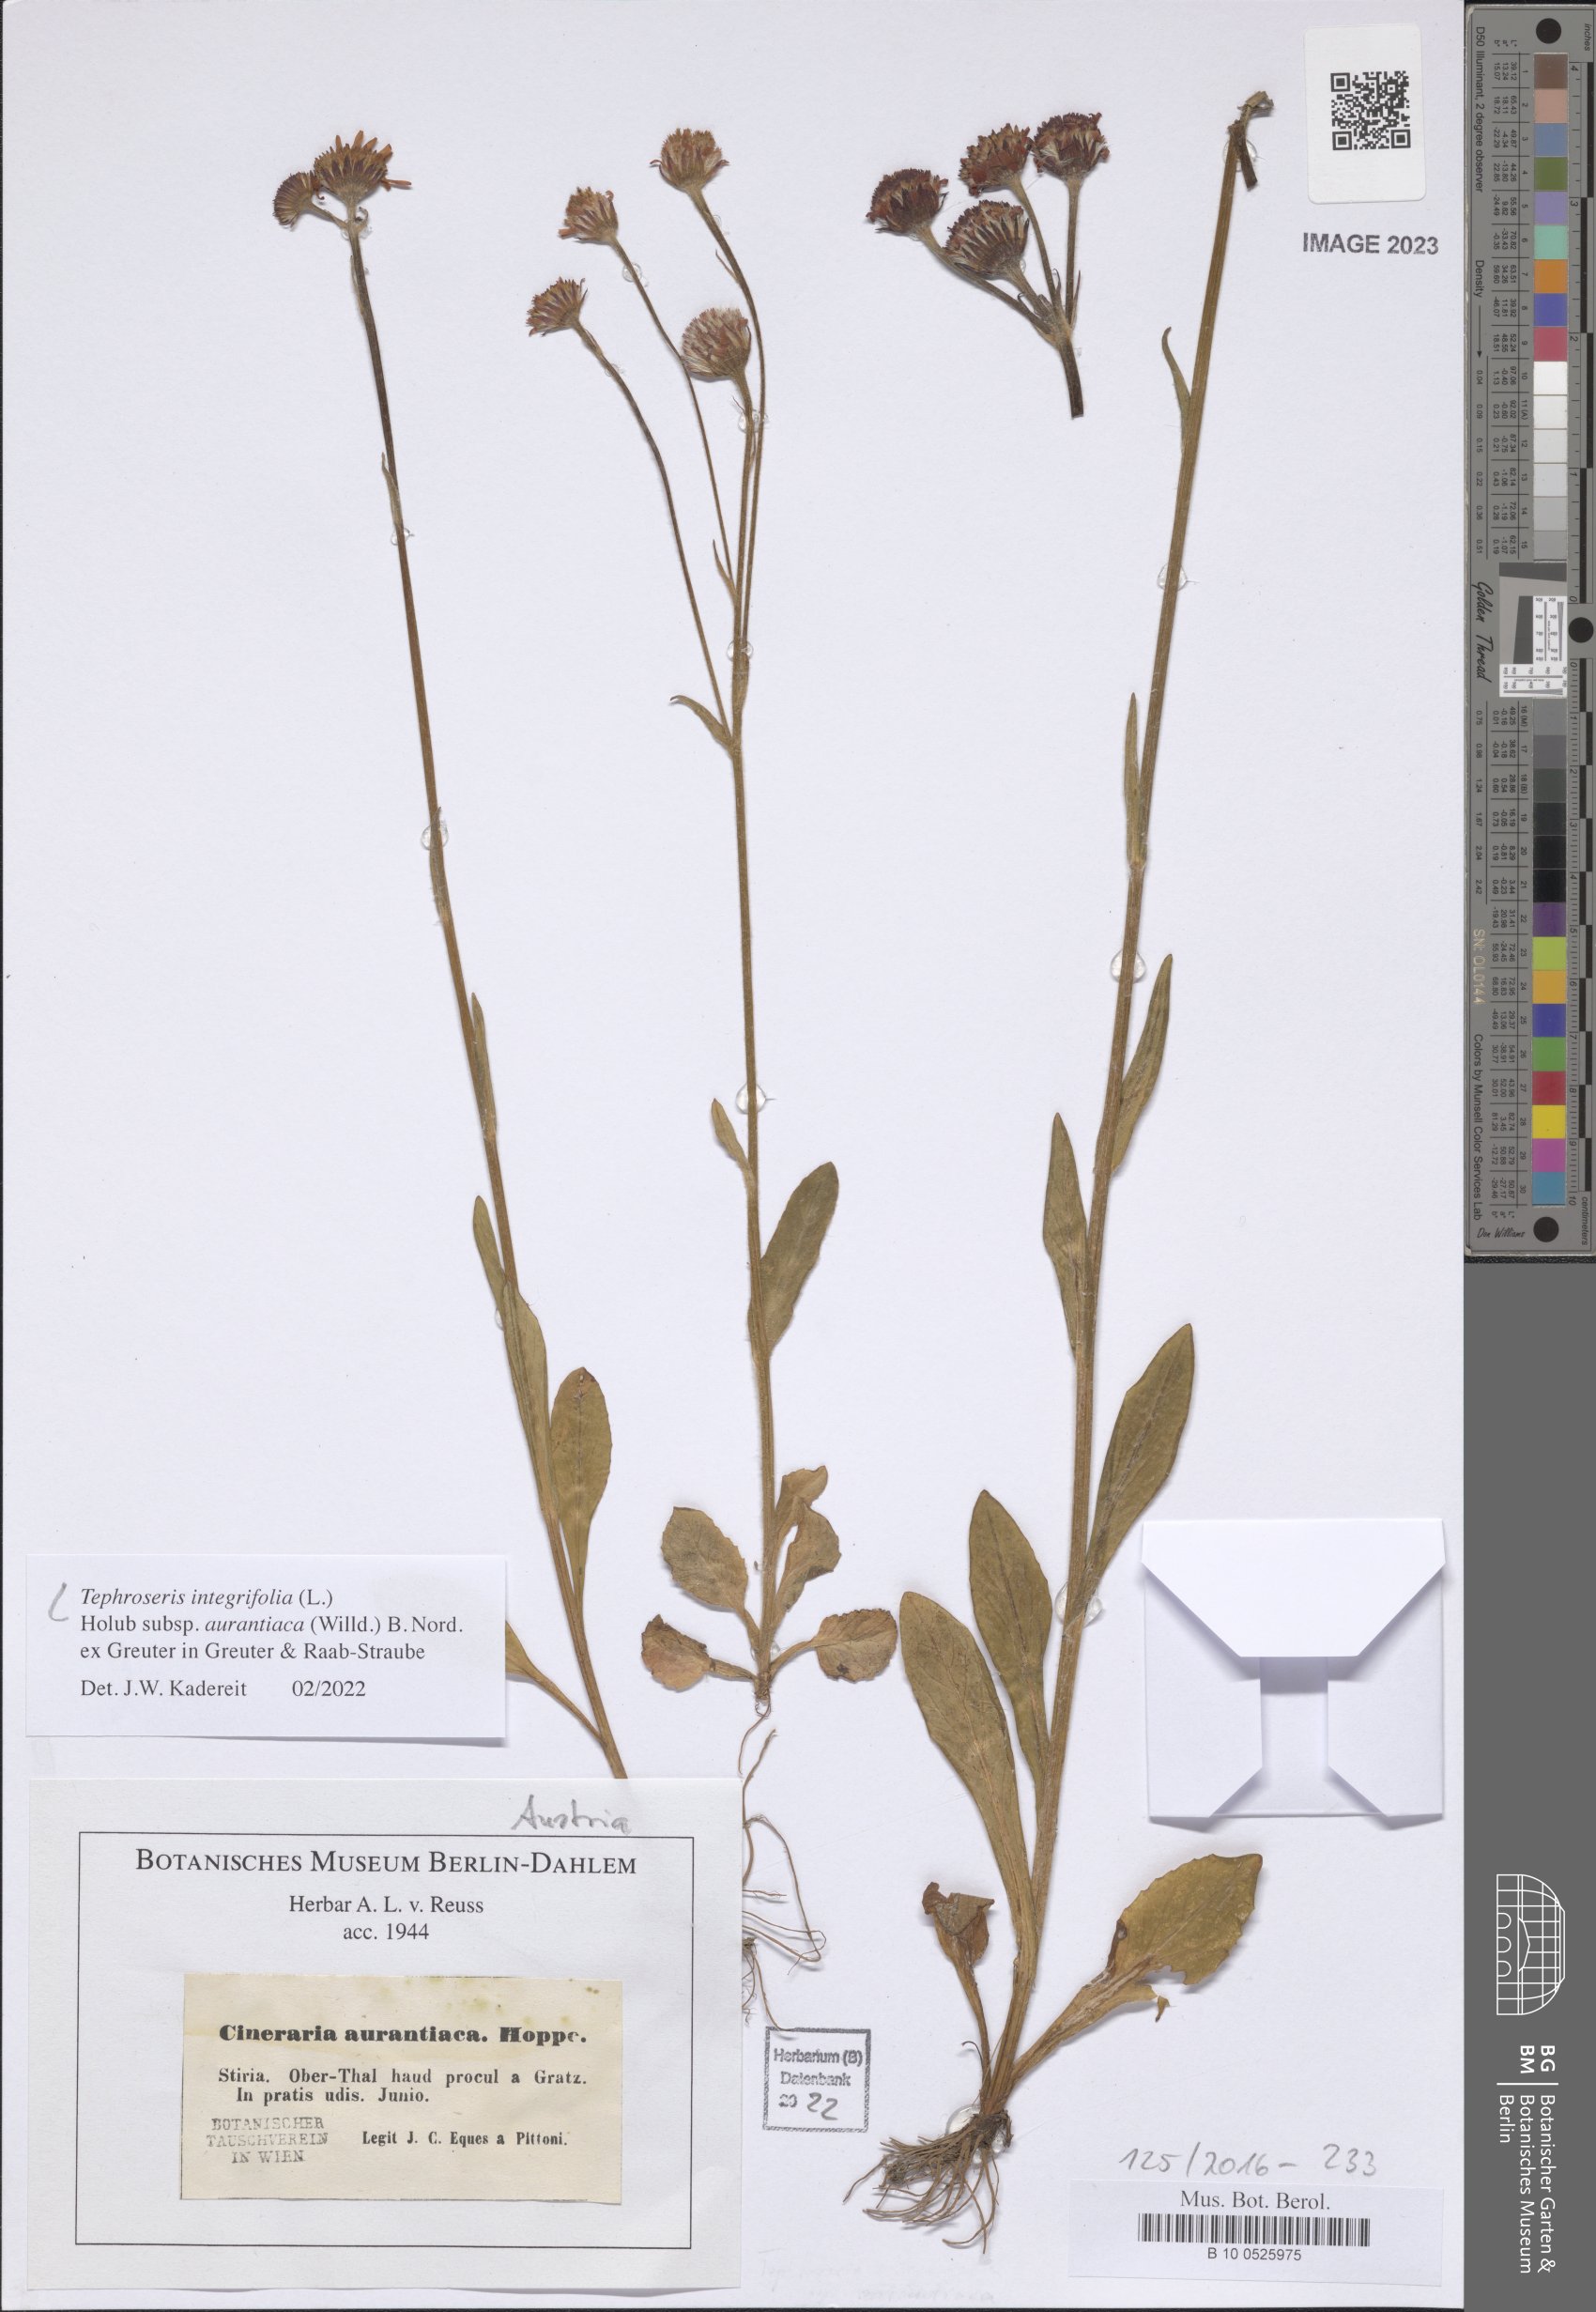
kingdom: Plantae
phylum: Tracheophyta
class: Magnoliopsida
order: Asterales
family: Asteraceae
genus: Tephroseris
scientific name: Tephroseris aurantiaca
